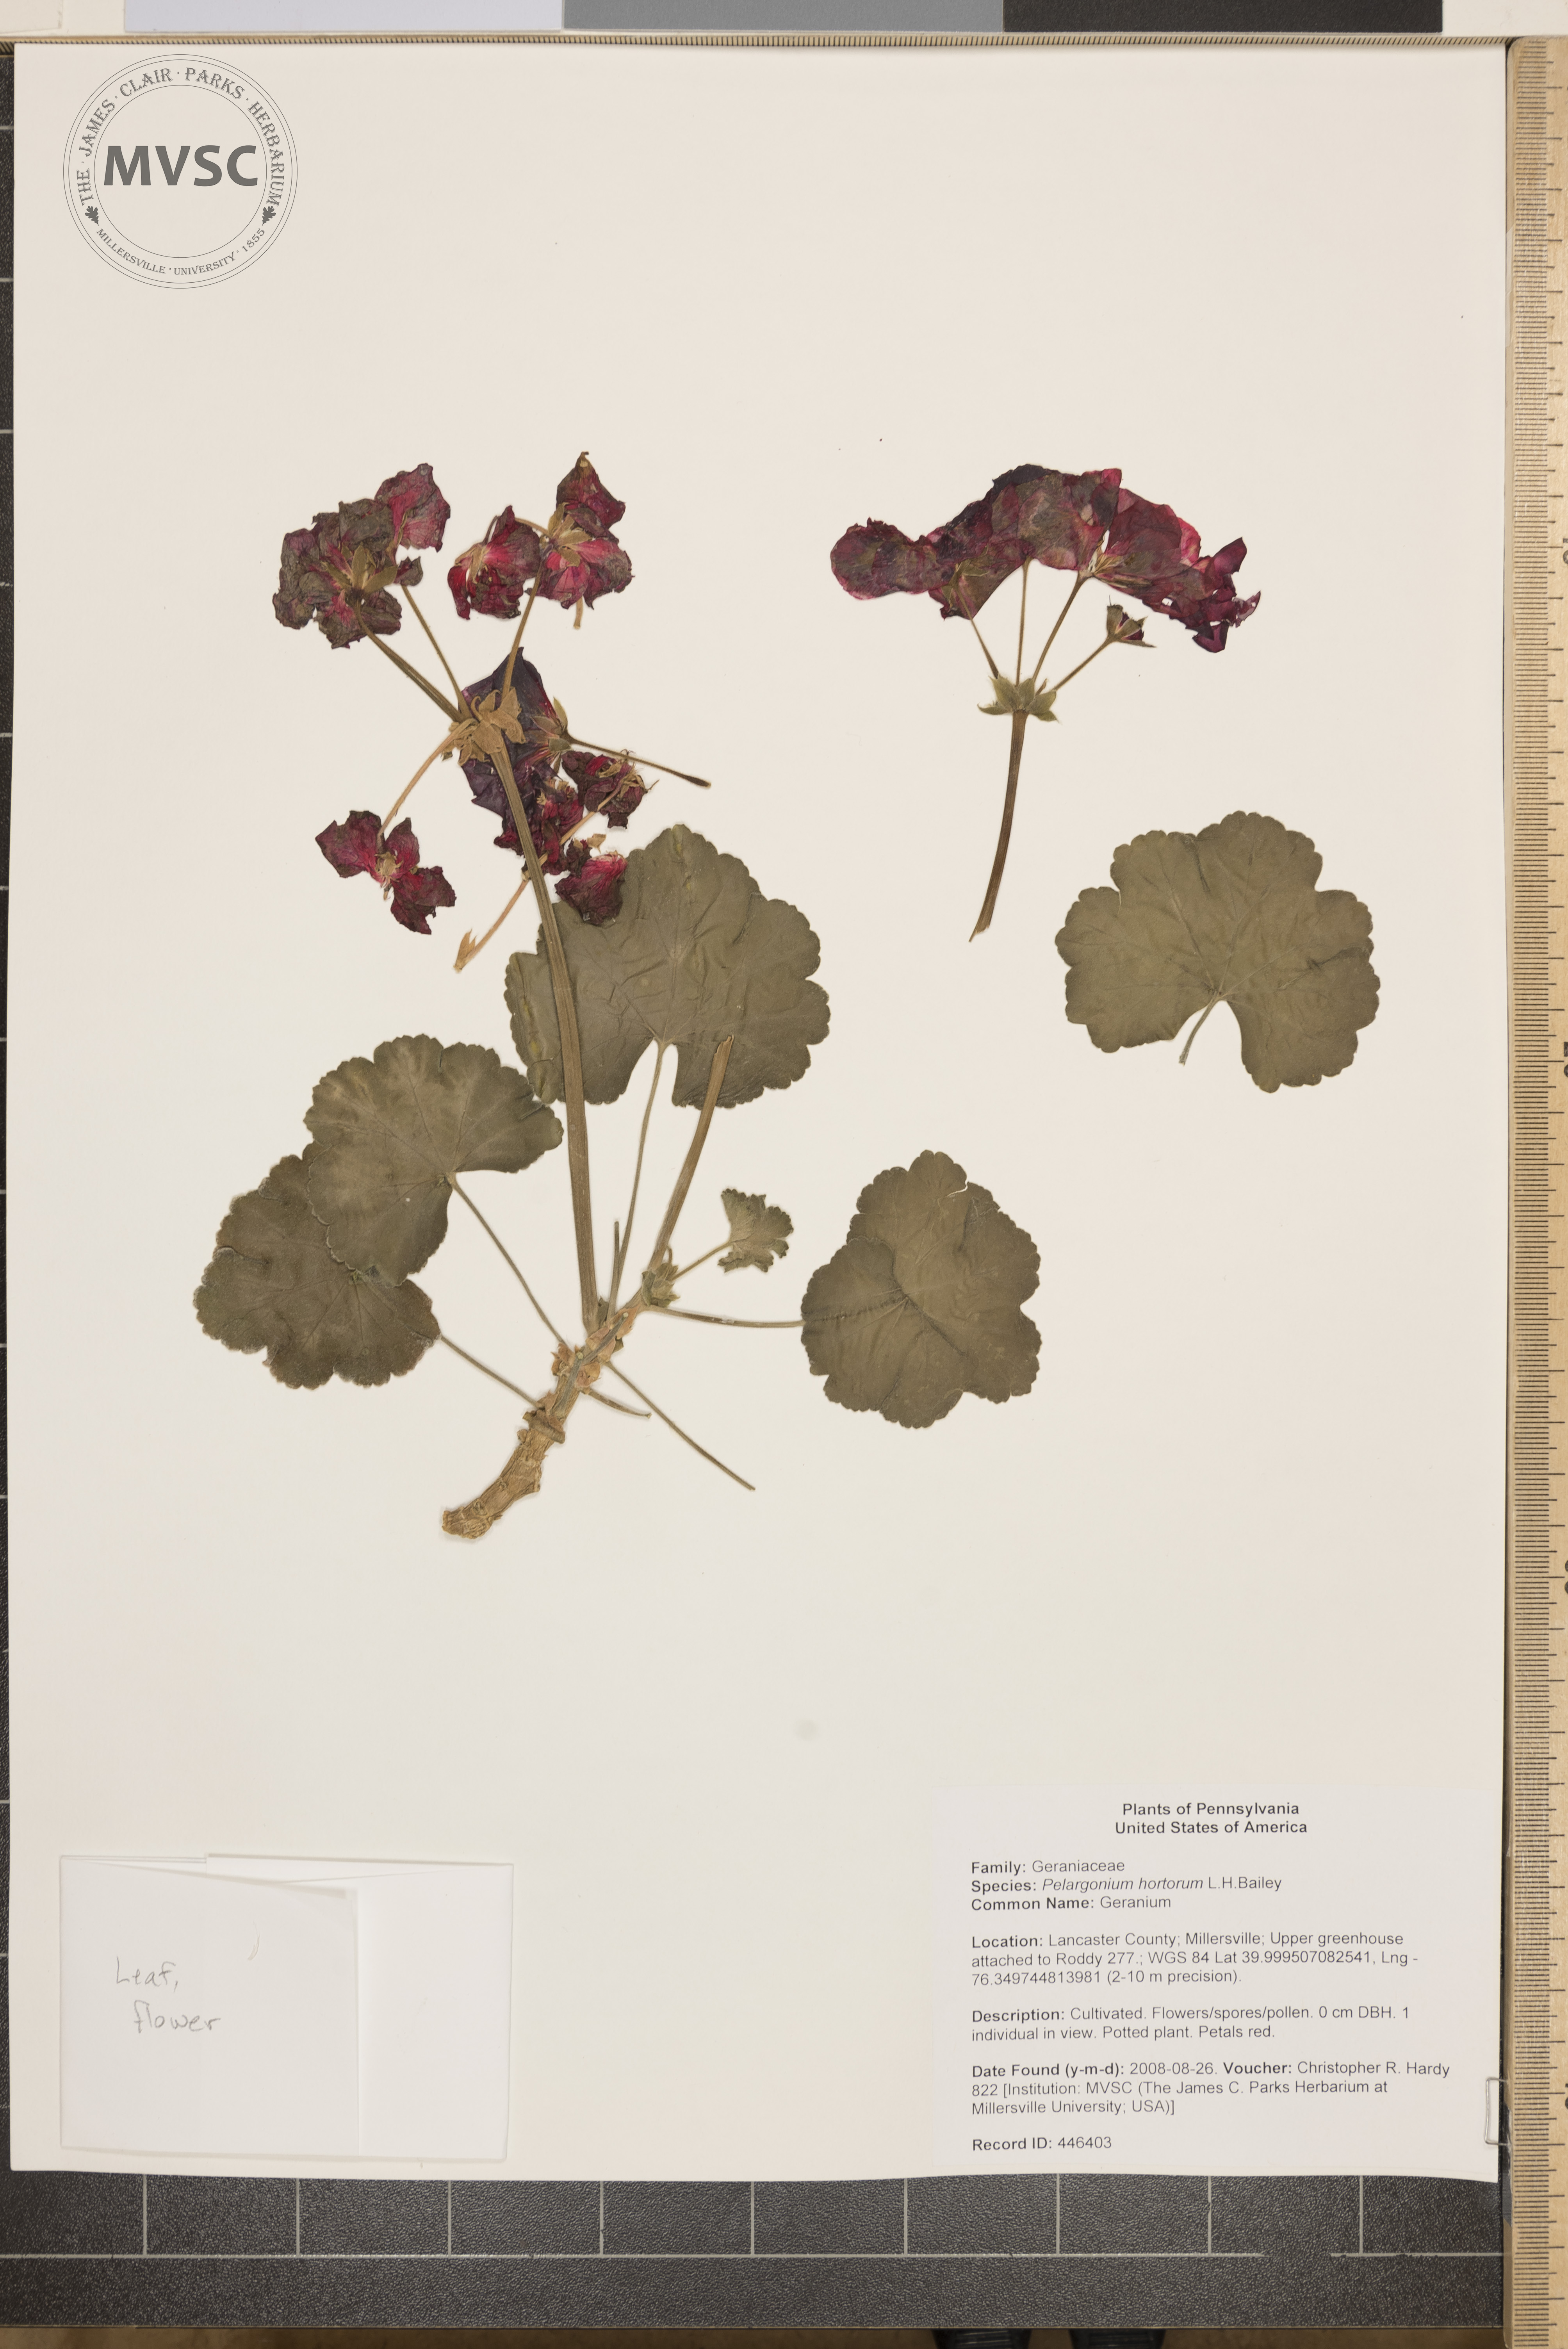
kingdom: Plantae
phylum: Tracheophyta
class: Magnoliopsida
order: Geraniales
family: Geraniaceae
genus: Pelargonium
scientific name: Pelargonium hortorum
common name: Geranium
